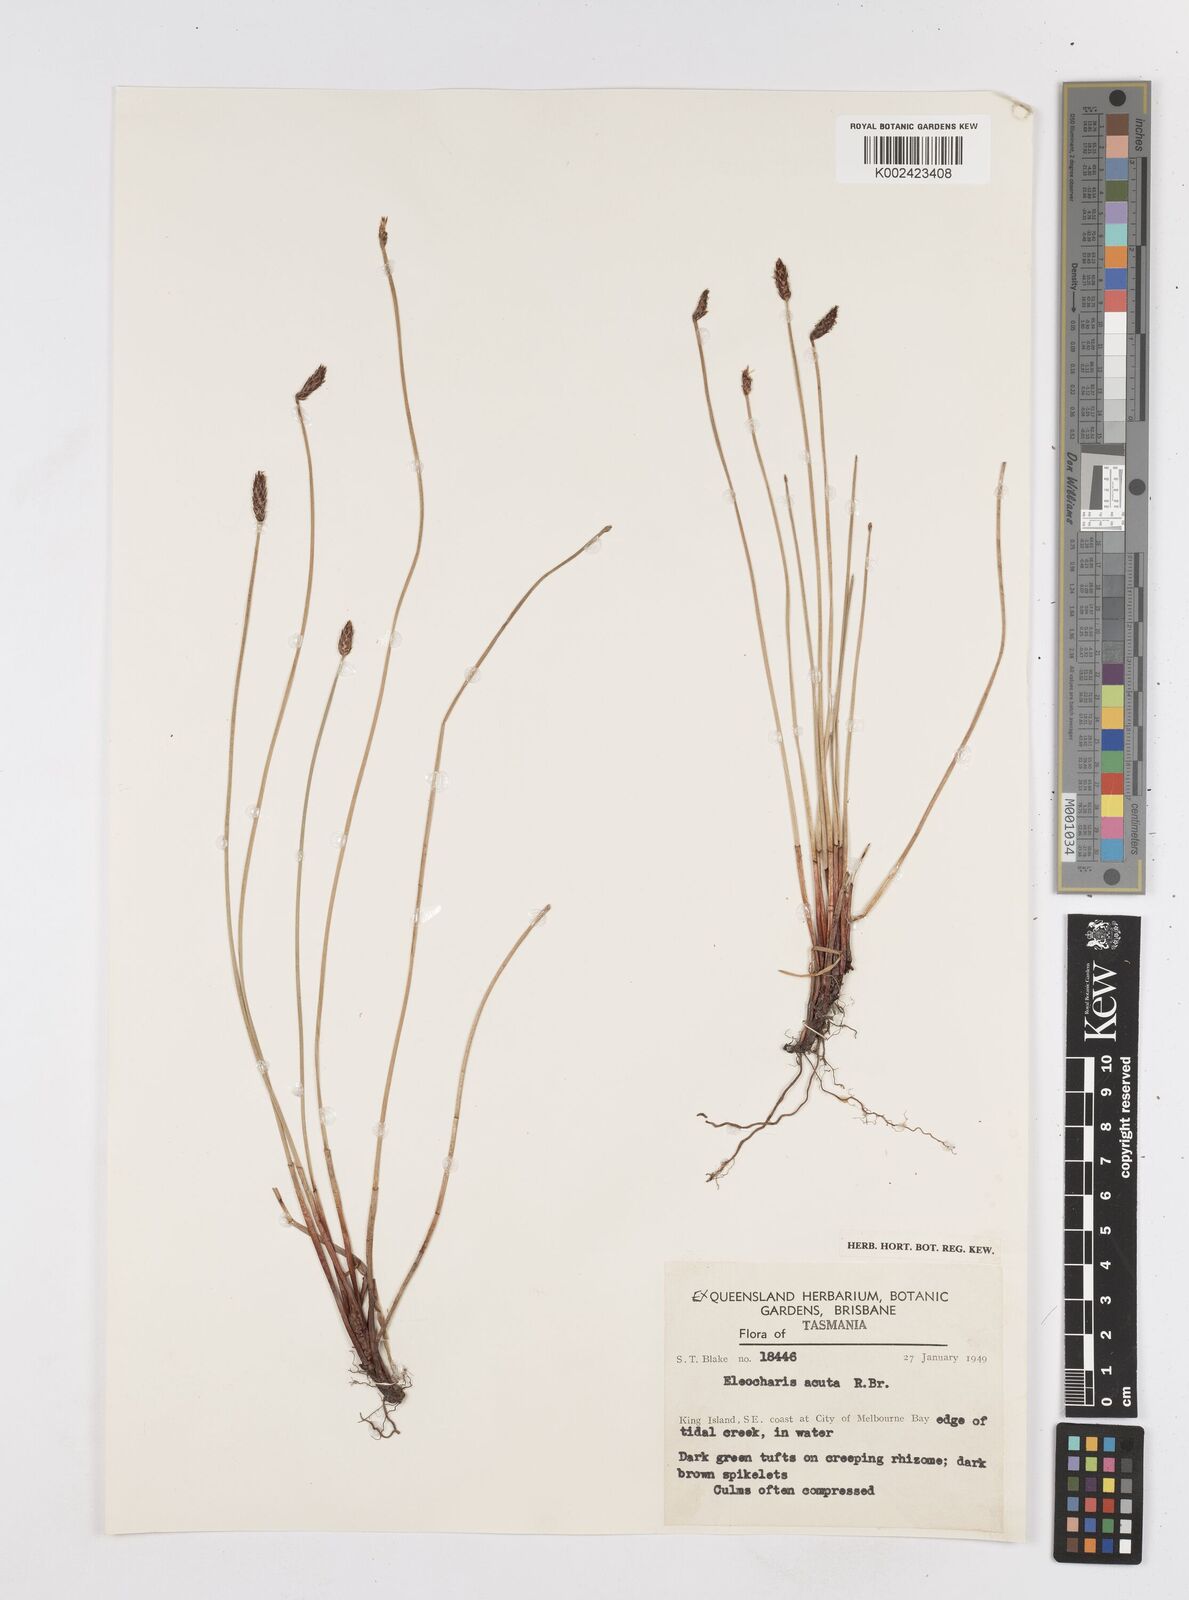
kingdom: Plantae
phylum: Tracheophyta
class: Liliopsida
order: Poales
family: Cyperaceae
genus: Eleocharis
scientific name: Eleocharis acuta
